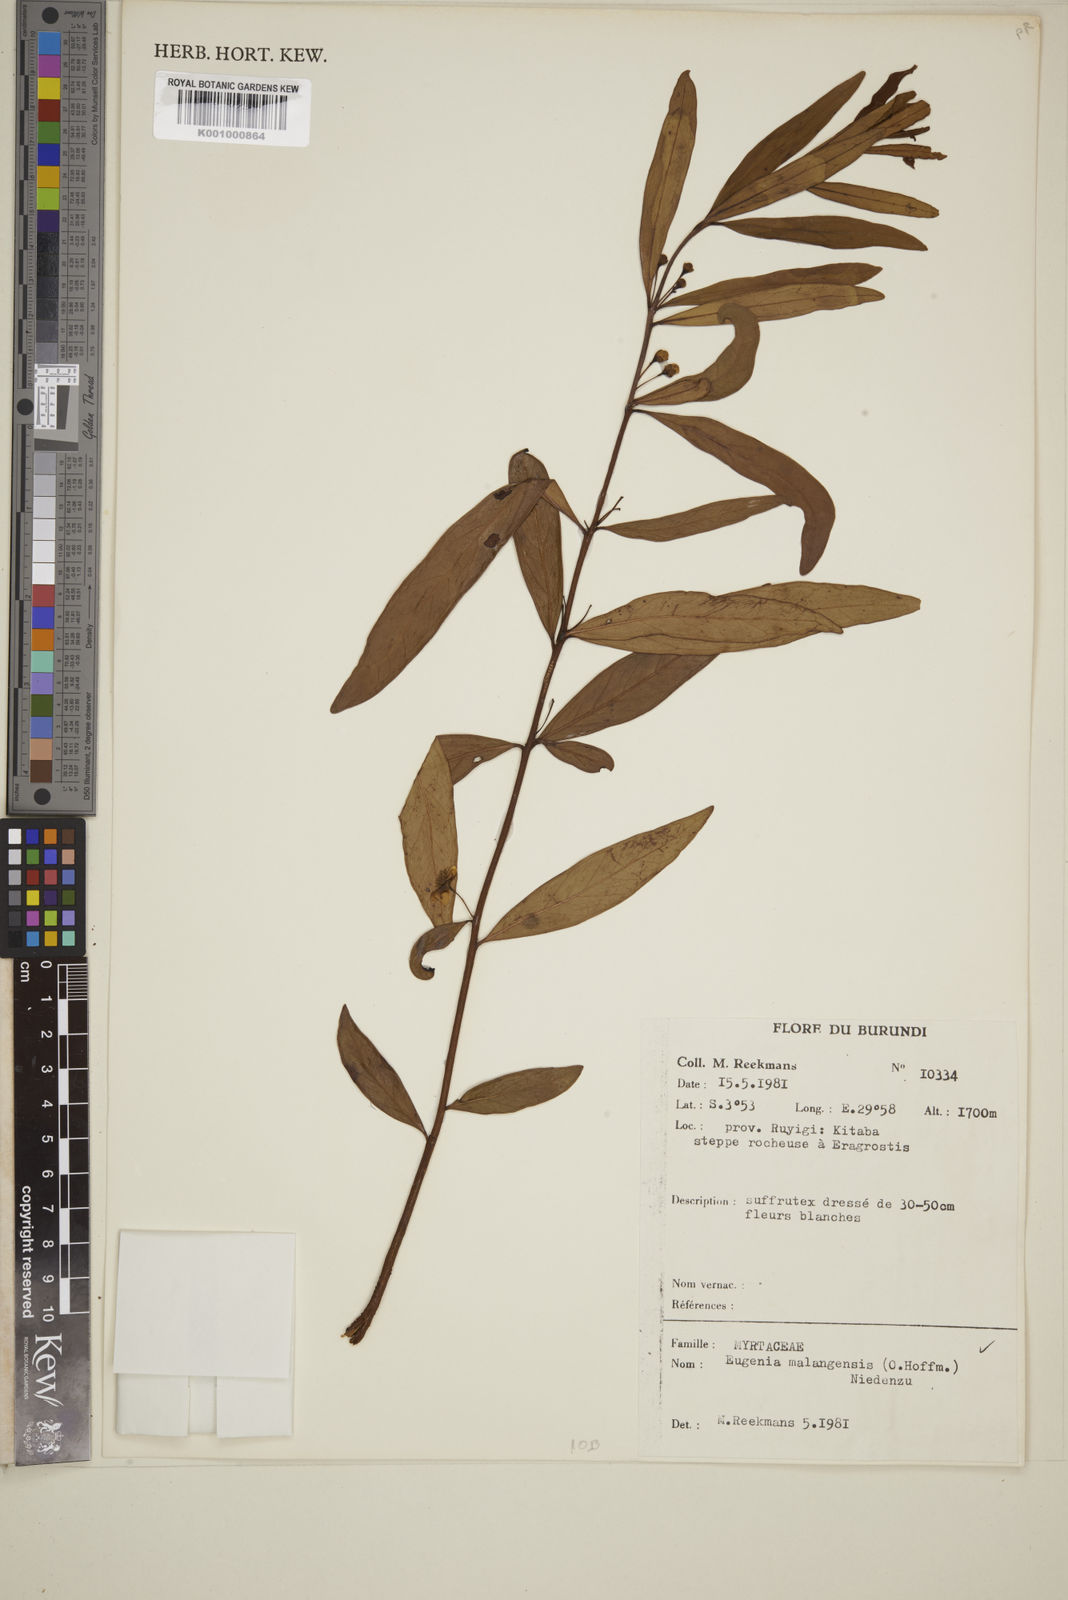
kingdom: Plantae
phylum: Tracheophyta
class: Magnoliopsida
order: Myrtales
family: Myrtaceae
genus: Eugenia
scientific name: Eugenia malangensis
